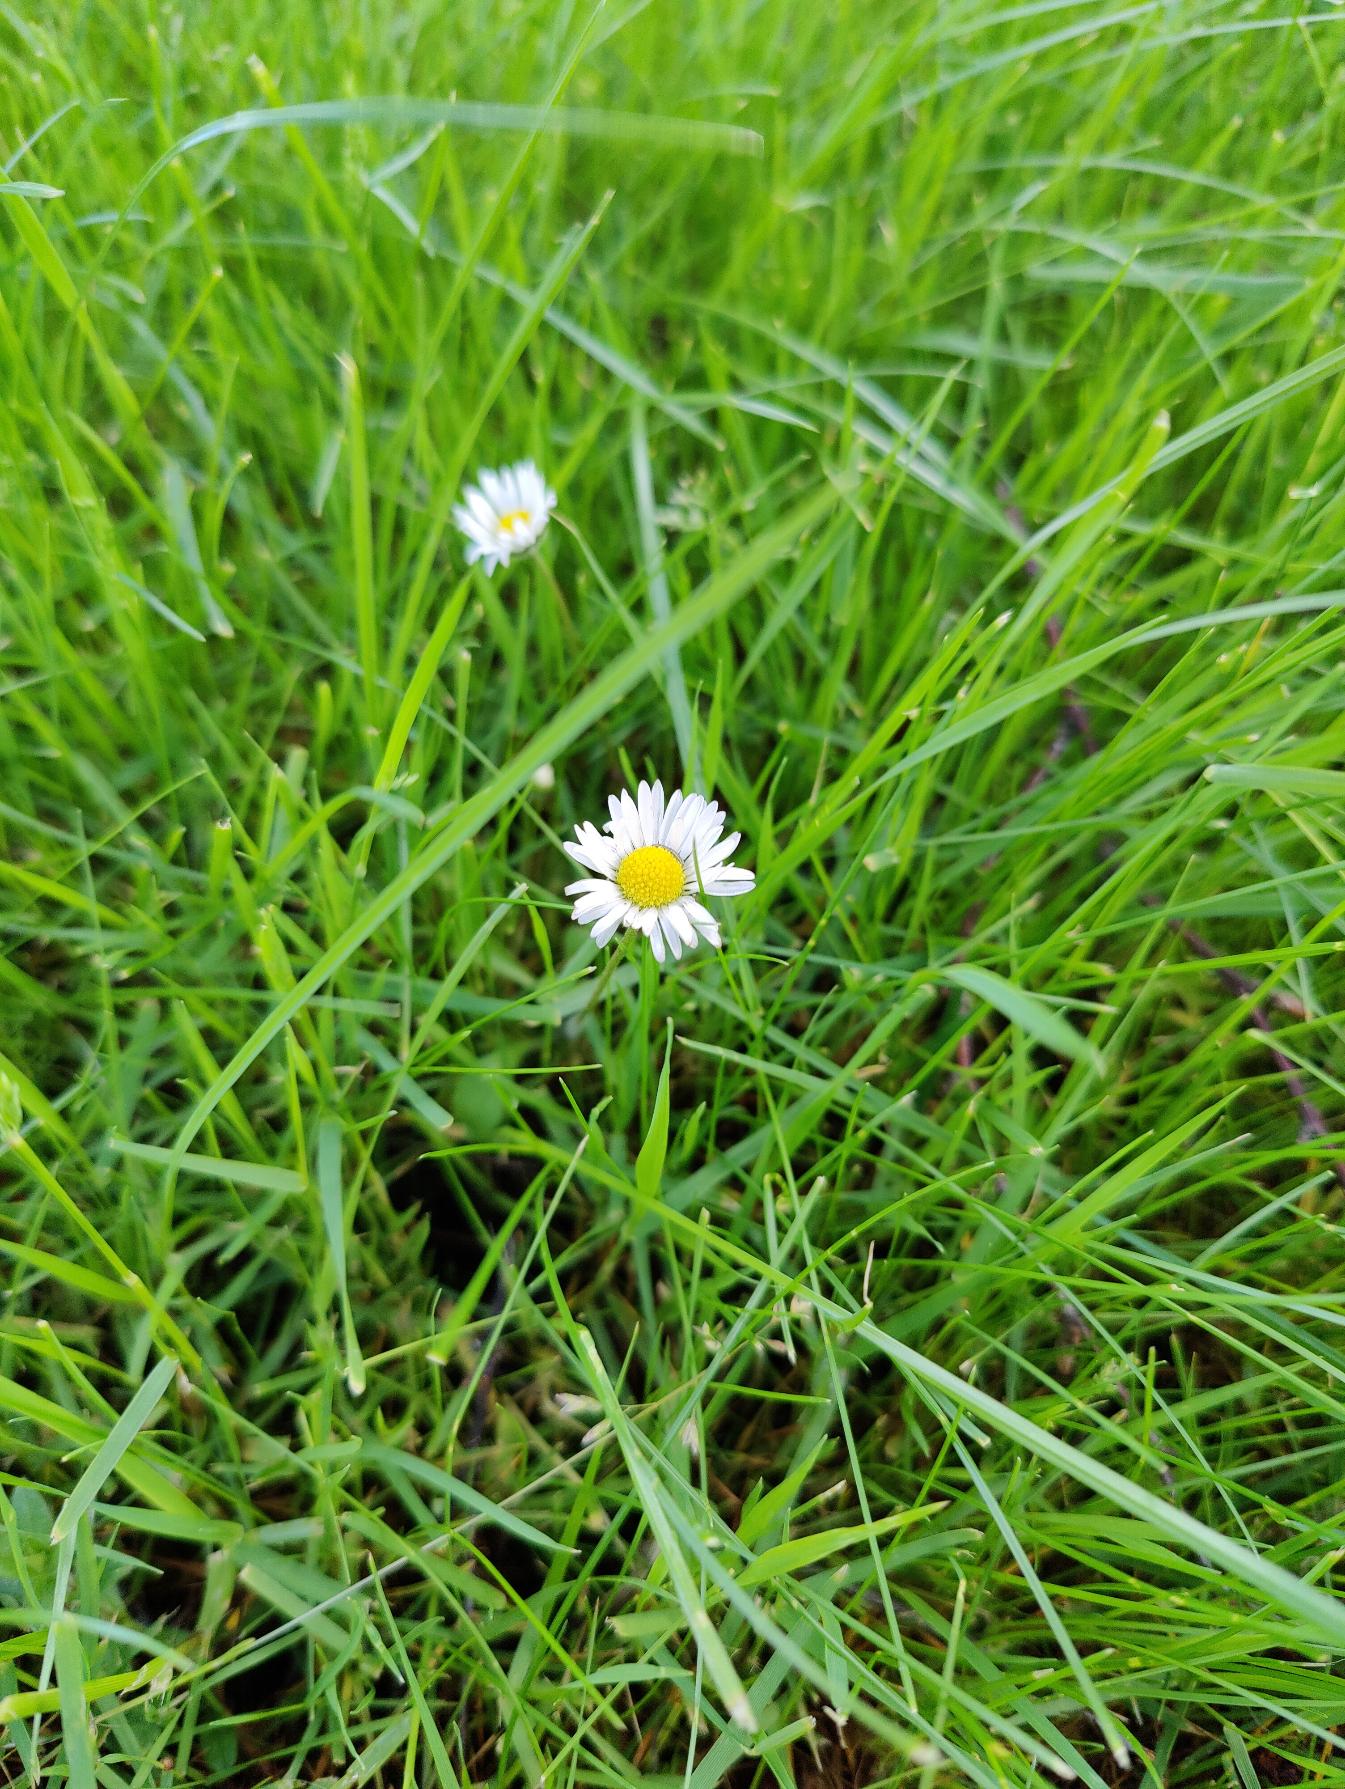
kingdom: Plantae
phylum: Tracheophyta
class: Magnoliopsida
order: Asterales
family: Asteraceae
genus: Bellis
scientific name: Bellis perennis
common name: Tusindfryd
